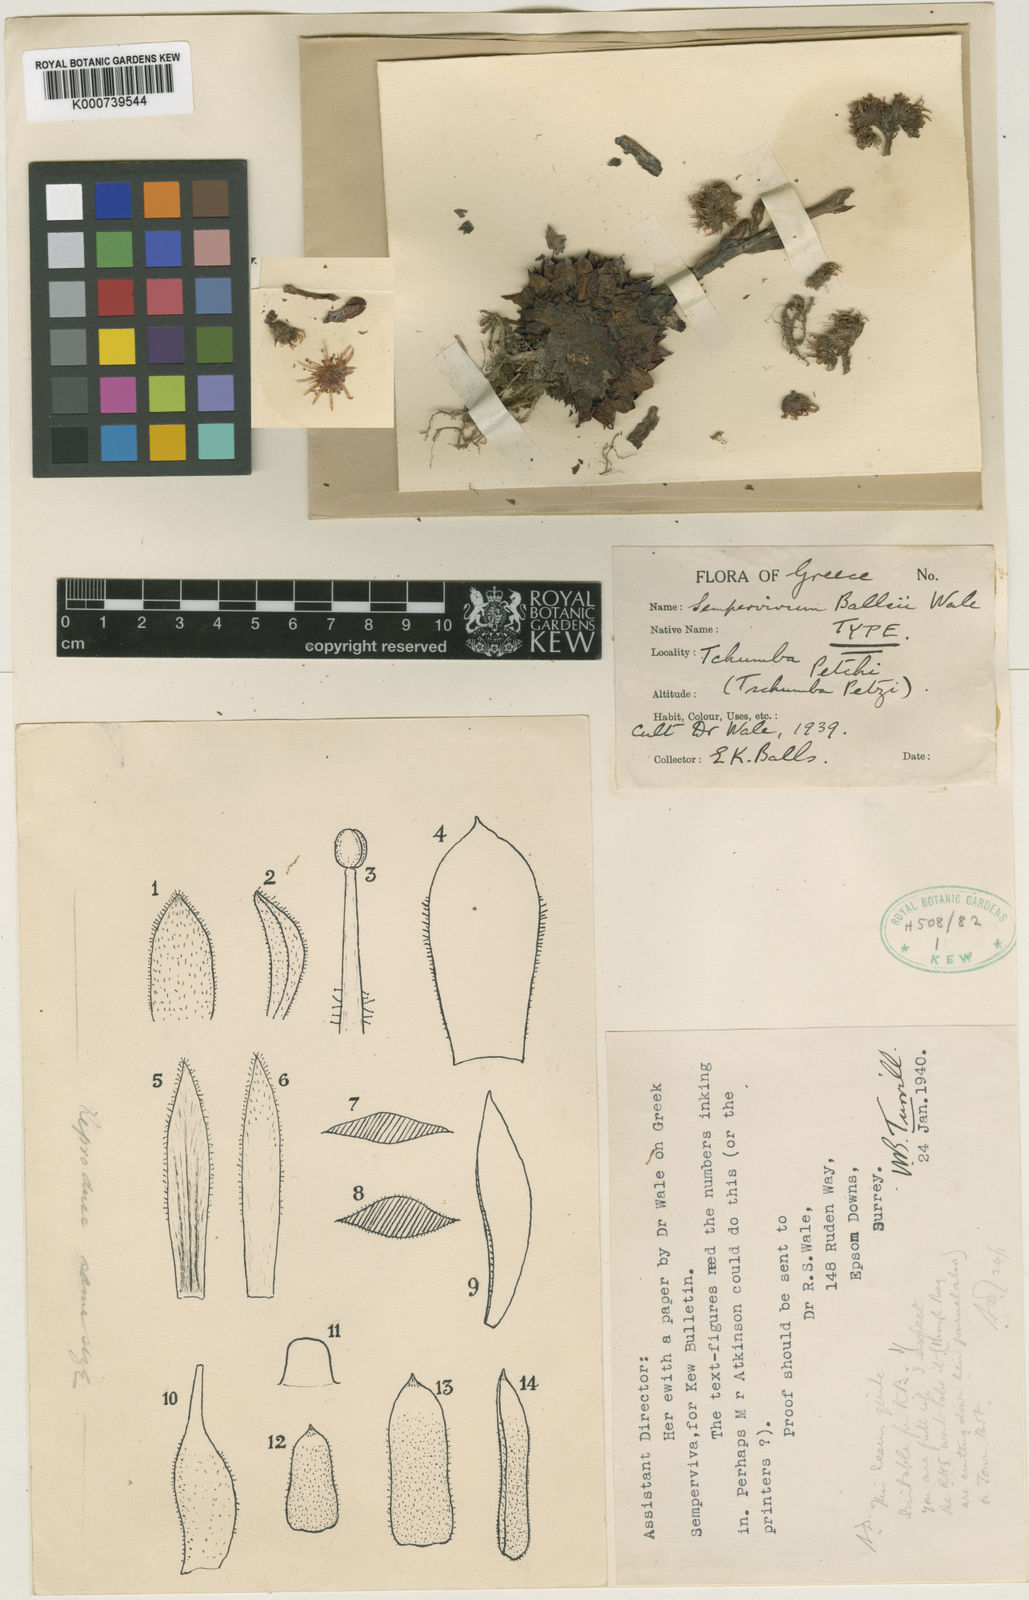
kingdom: Plantae
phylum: Tracheophyta
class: Magnoliopsida
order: Saxifragales
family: Crassulaceae
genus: Sempervivum
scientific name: Sempervivum marmoreum
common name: Houseleek
